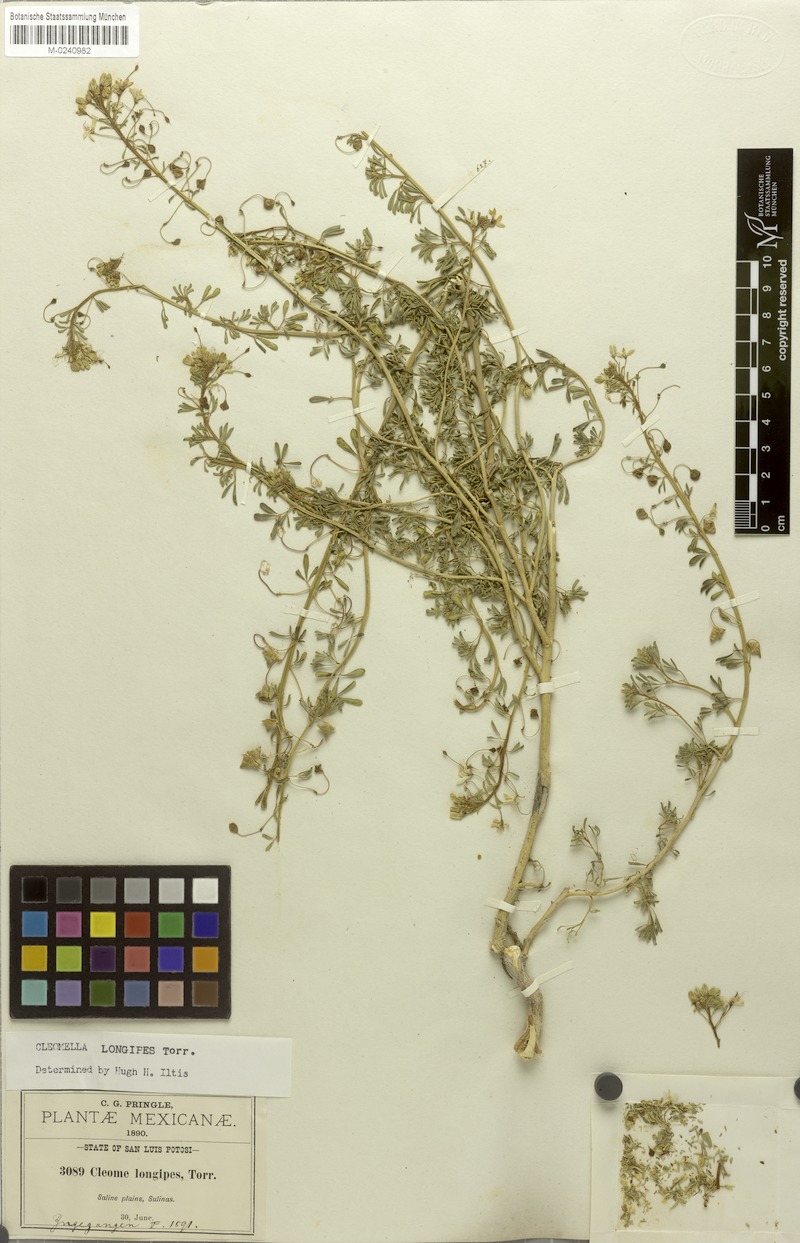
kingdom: Plantae
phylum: Tracheophyta
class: Magnoliopsida
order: Brassicales
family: Cleomaceae
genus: Cleomella
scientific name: Cleomella perennis
